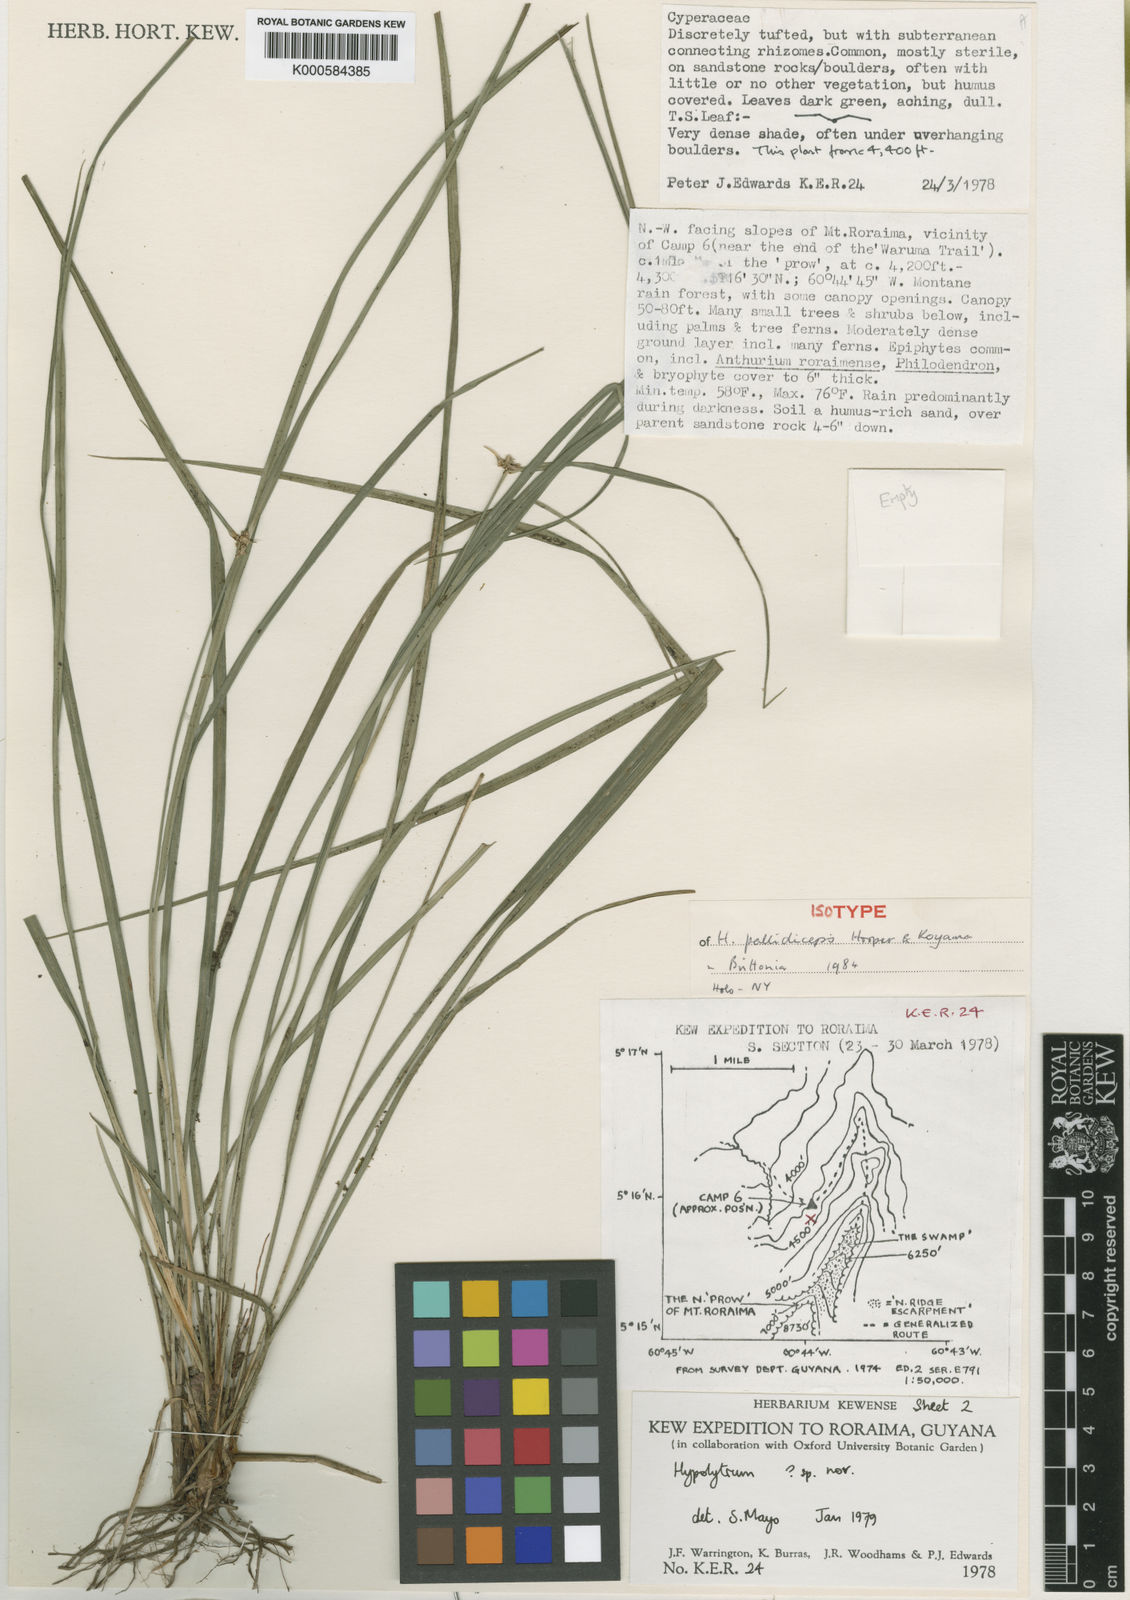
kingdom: Plantae
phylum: Tracheophyta
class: Liliopsida
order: Poales
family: Cyperaceae
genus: Hypolytrum
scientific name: Hypolytrum pallidiceps
